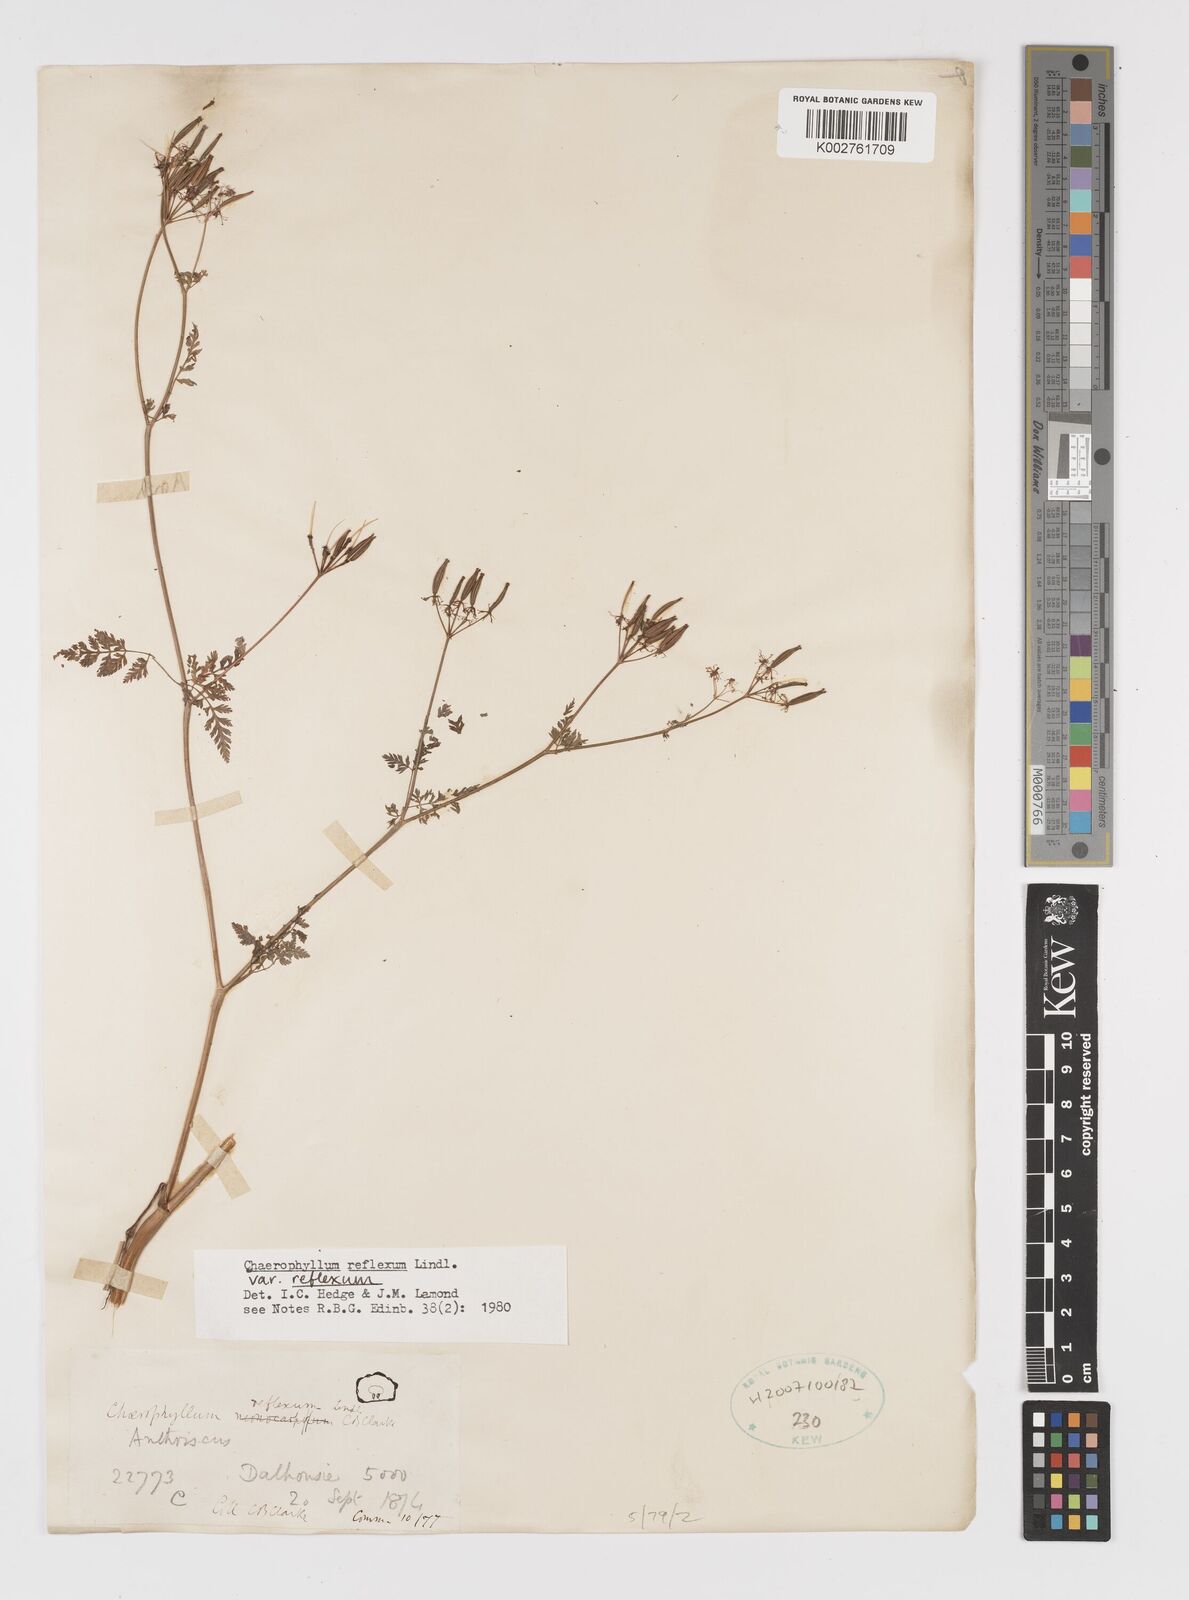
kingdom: Plantae
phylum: Tracheophyta
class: Magnoliopsida
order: Apiales
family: Apiaceae
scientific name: Apiaceae
